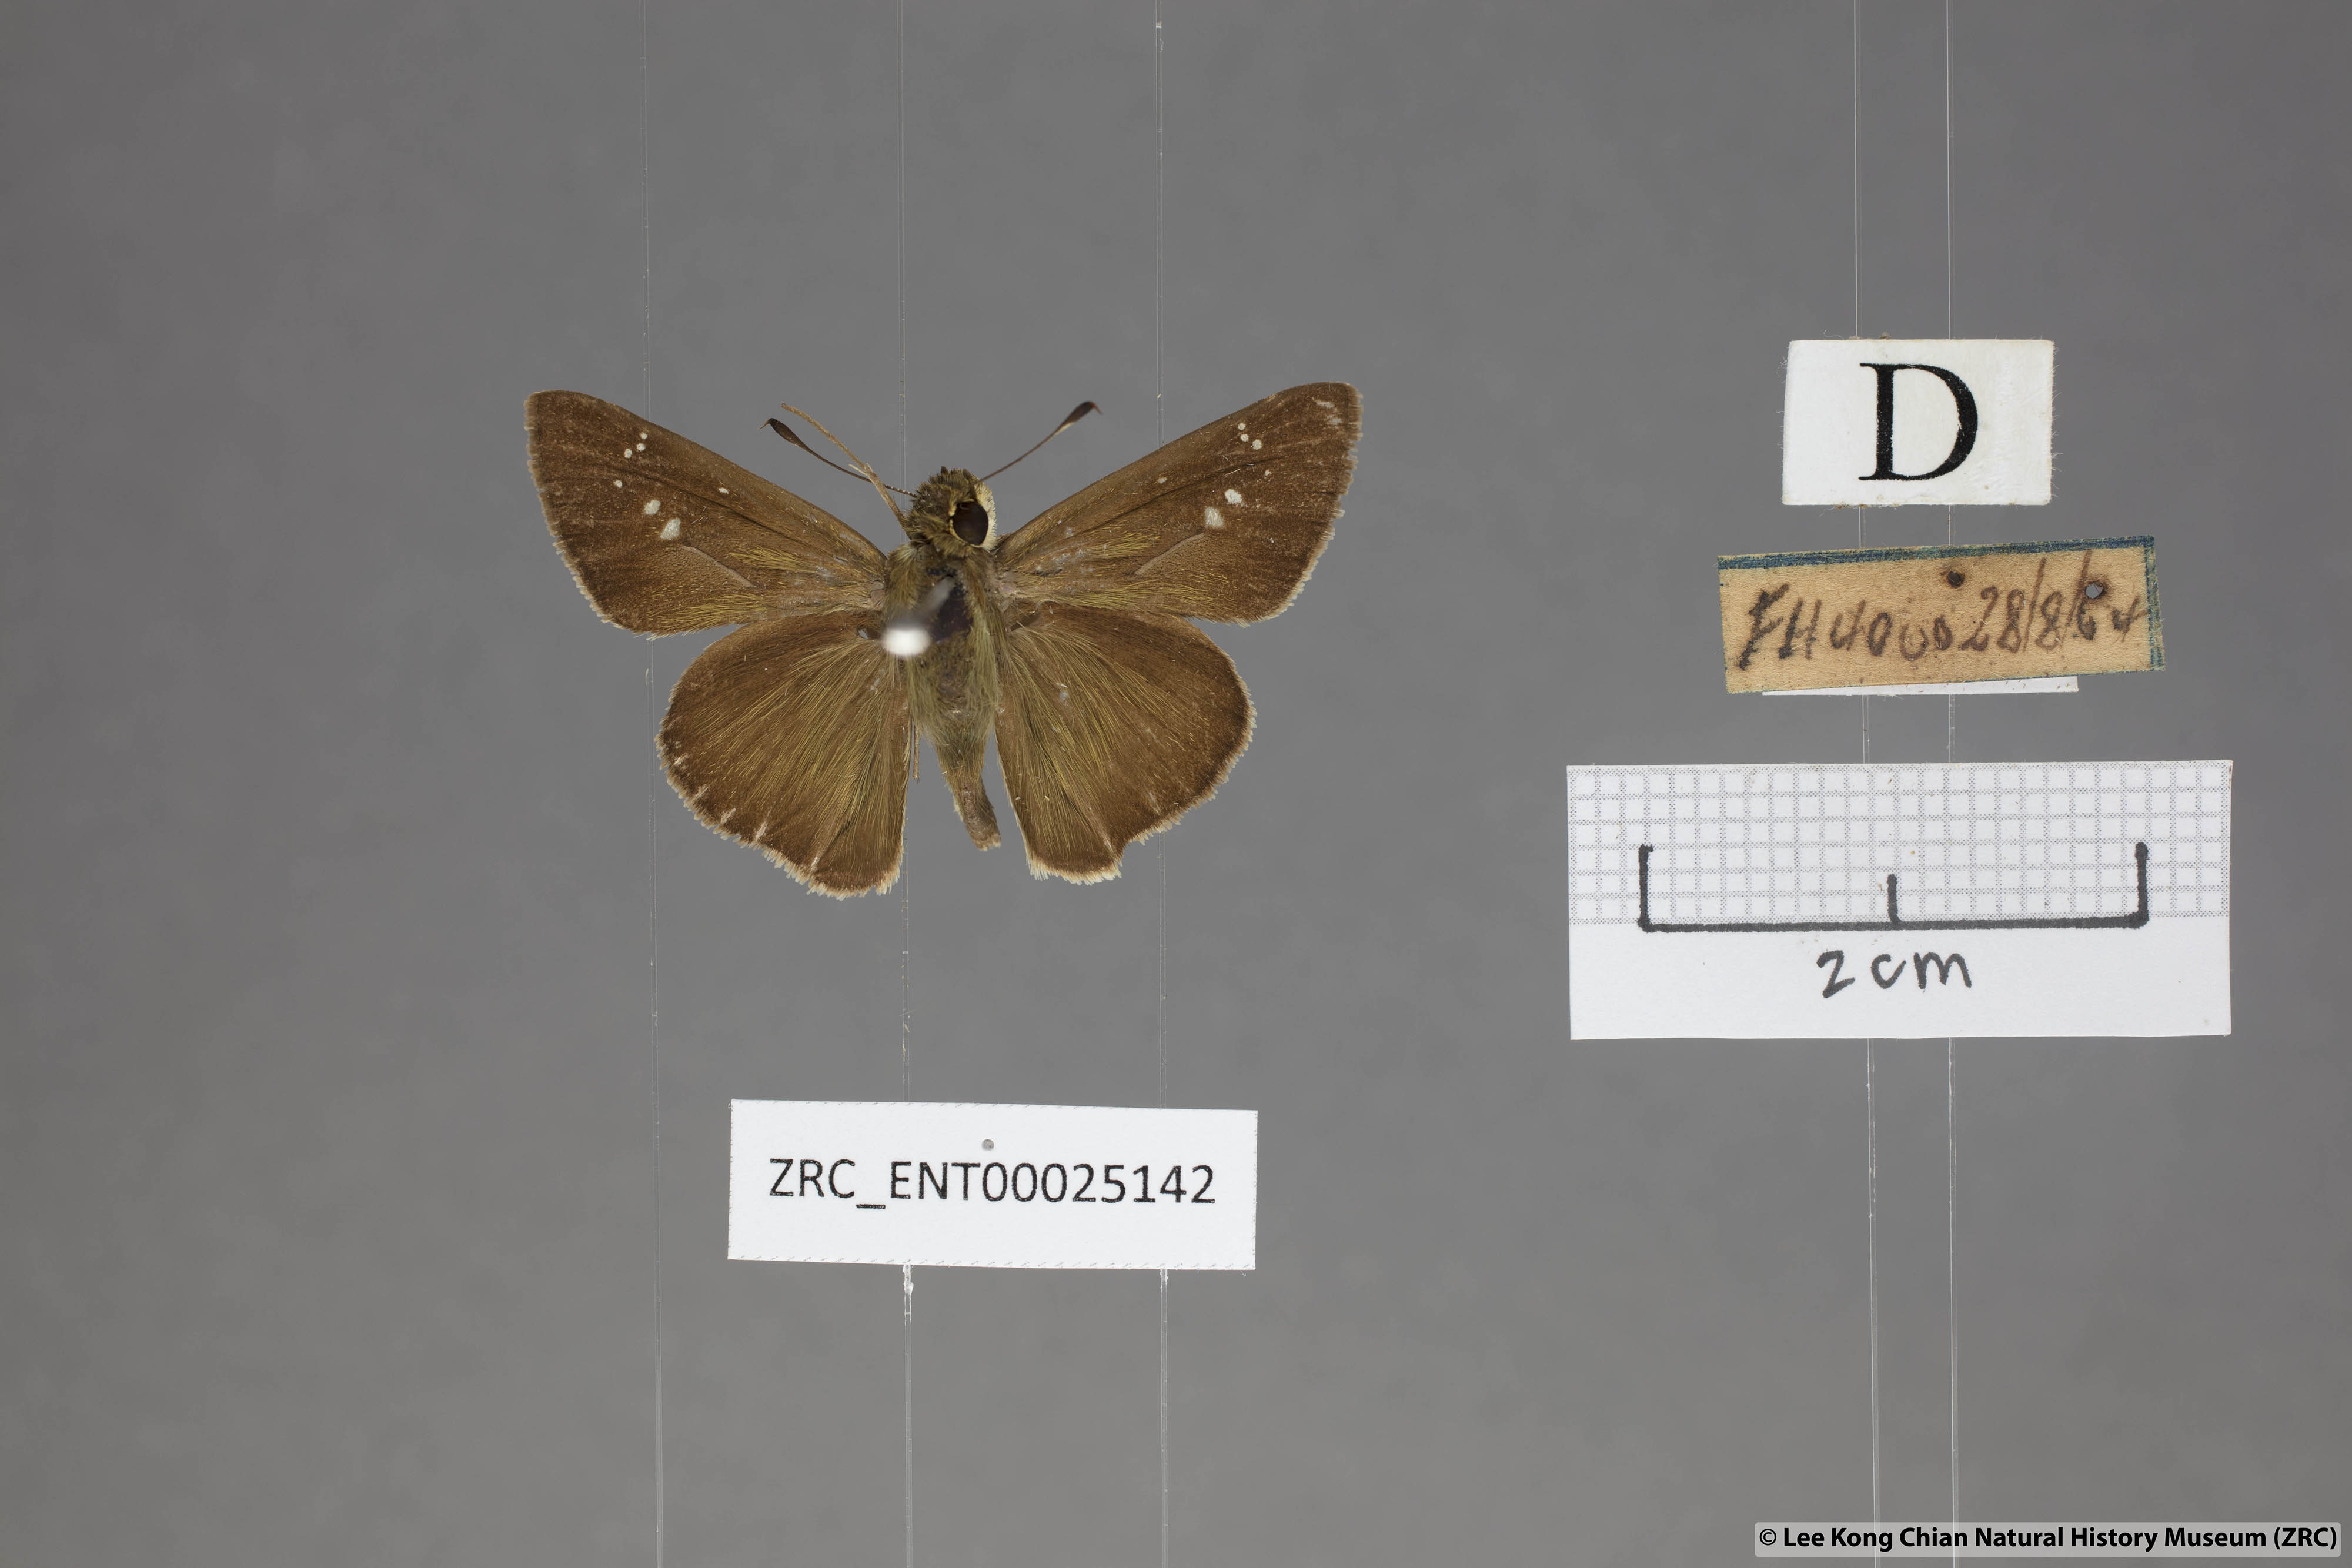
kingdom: Animalia
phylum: Arthropoda
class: Insecta
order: Lepidoptera
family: Hesperiidae
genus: Pelopidas
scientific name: Pelopidas agna
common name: Little branded swift
